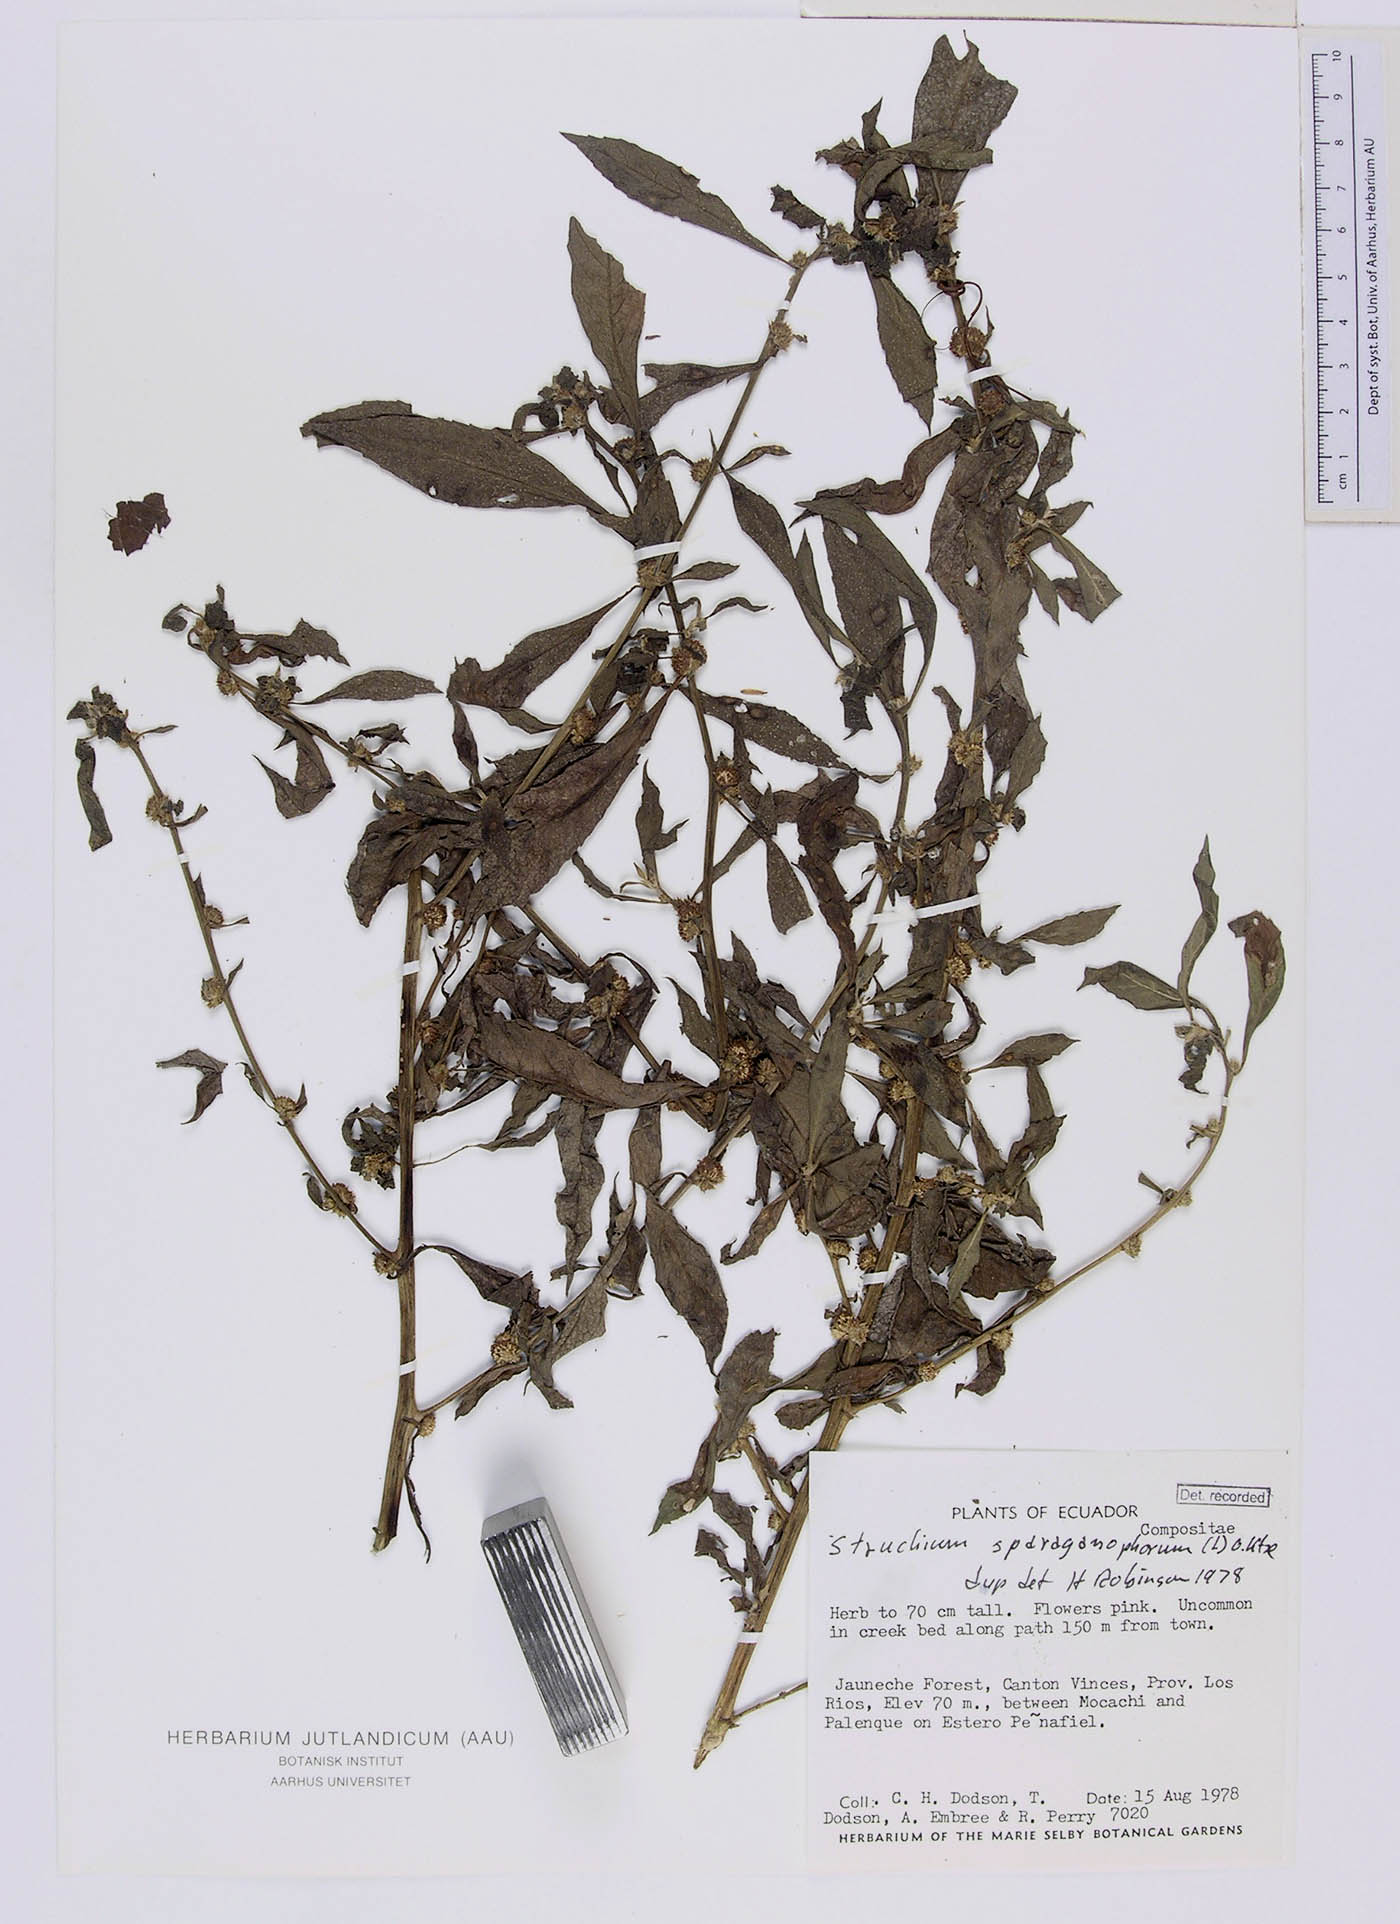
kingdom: Plantae
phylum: Tracheophyta
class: Magnoliopsida
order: Asterales
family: Asteraceae
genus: Struchium
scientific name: Struchium sparganophorum
